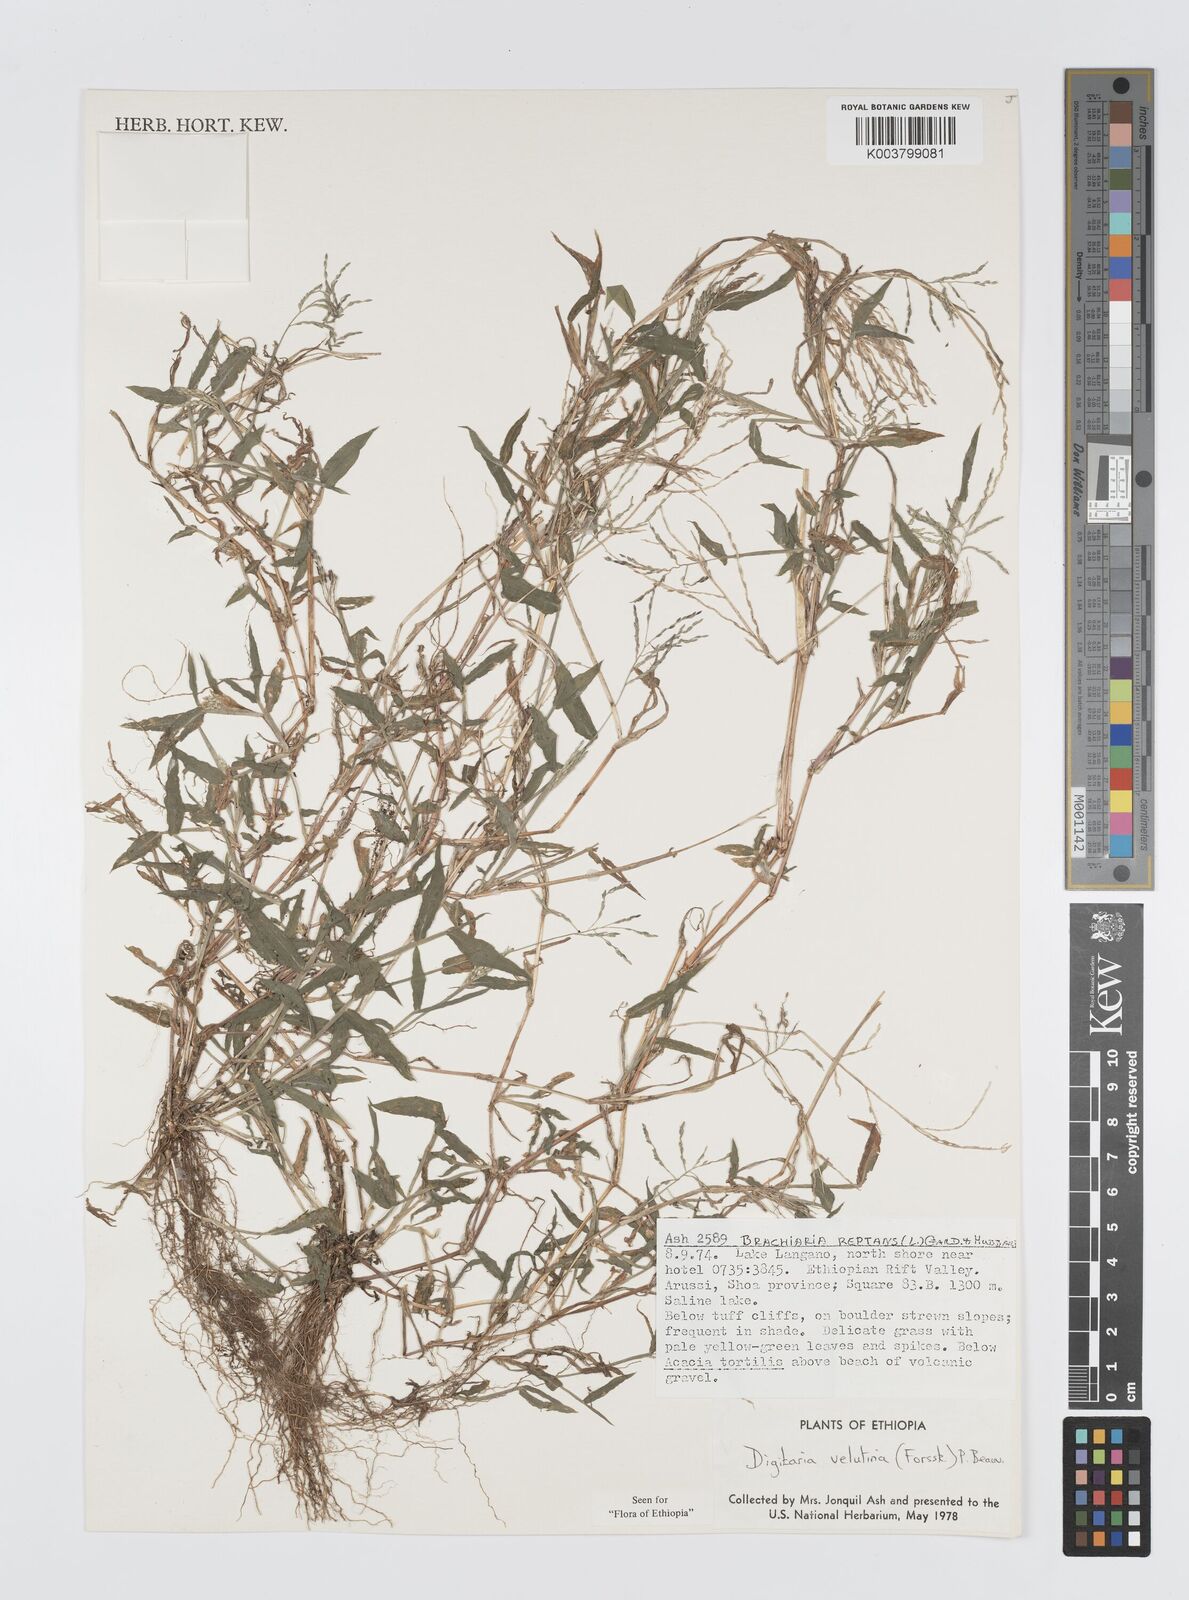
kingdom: Plantae
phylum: Tracheophyta
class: Liliopsida
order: Poales
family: Poaceae
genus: Digitaria
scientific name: Digitaria velutina
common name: Long-plume finger grass
